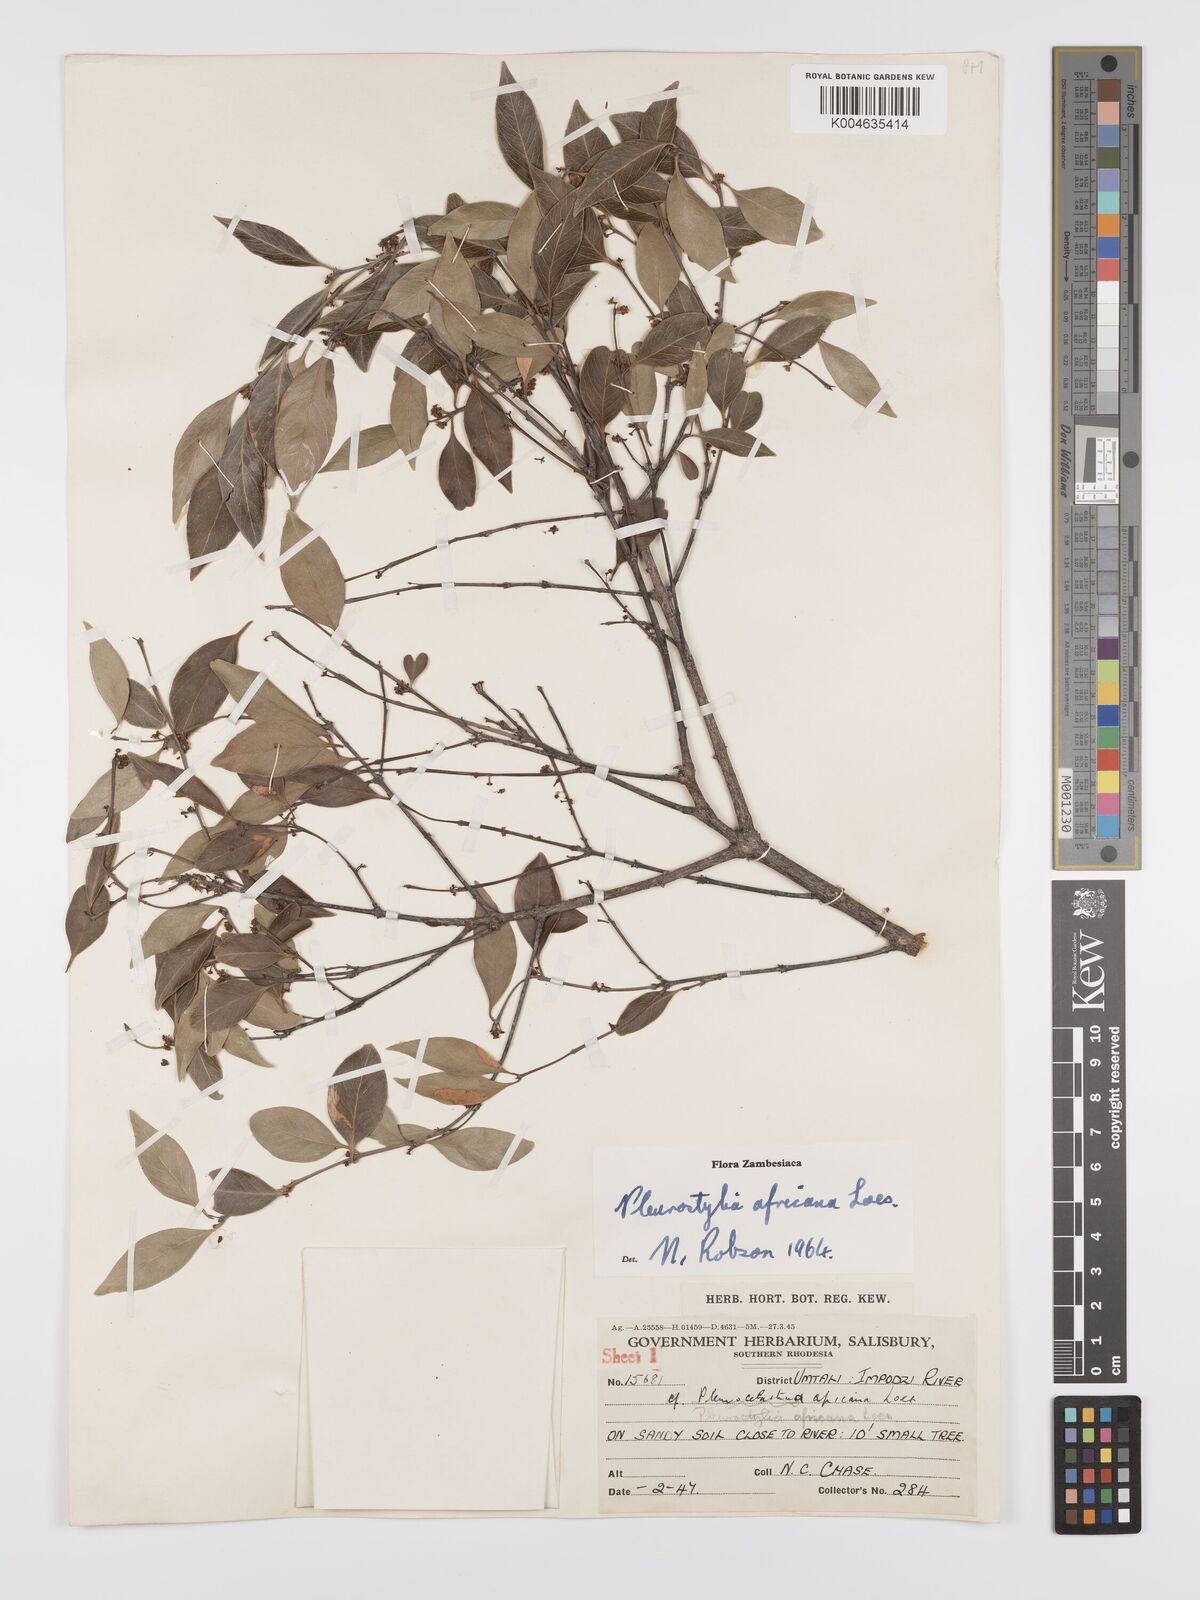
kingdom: Plantae
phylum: Tracheophyta
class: Magnoliopsida
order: Celastrales
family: Celastraceae
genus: Pleurostylia
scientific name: Pleurostylia africana
